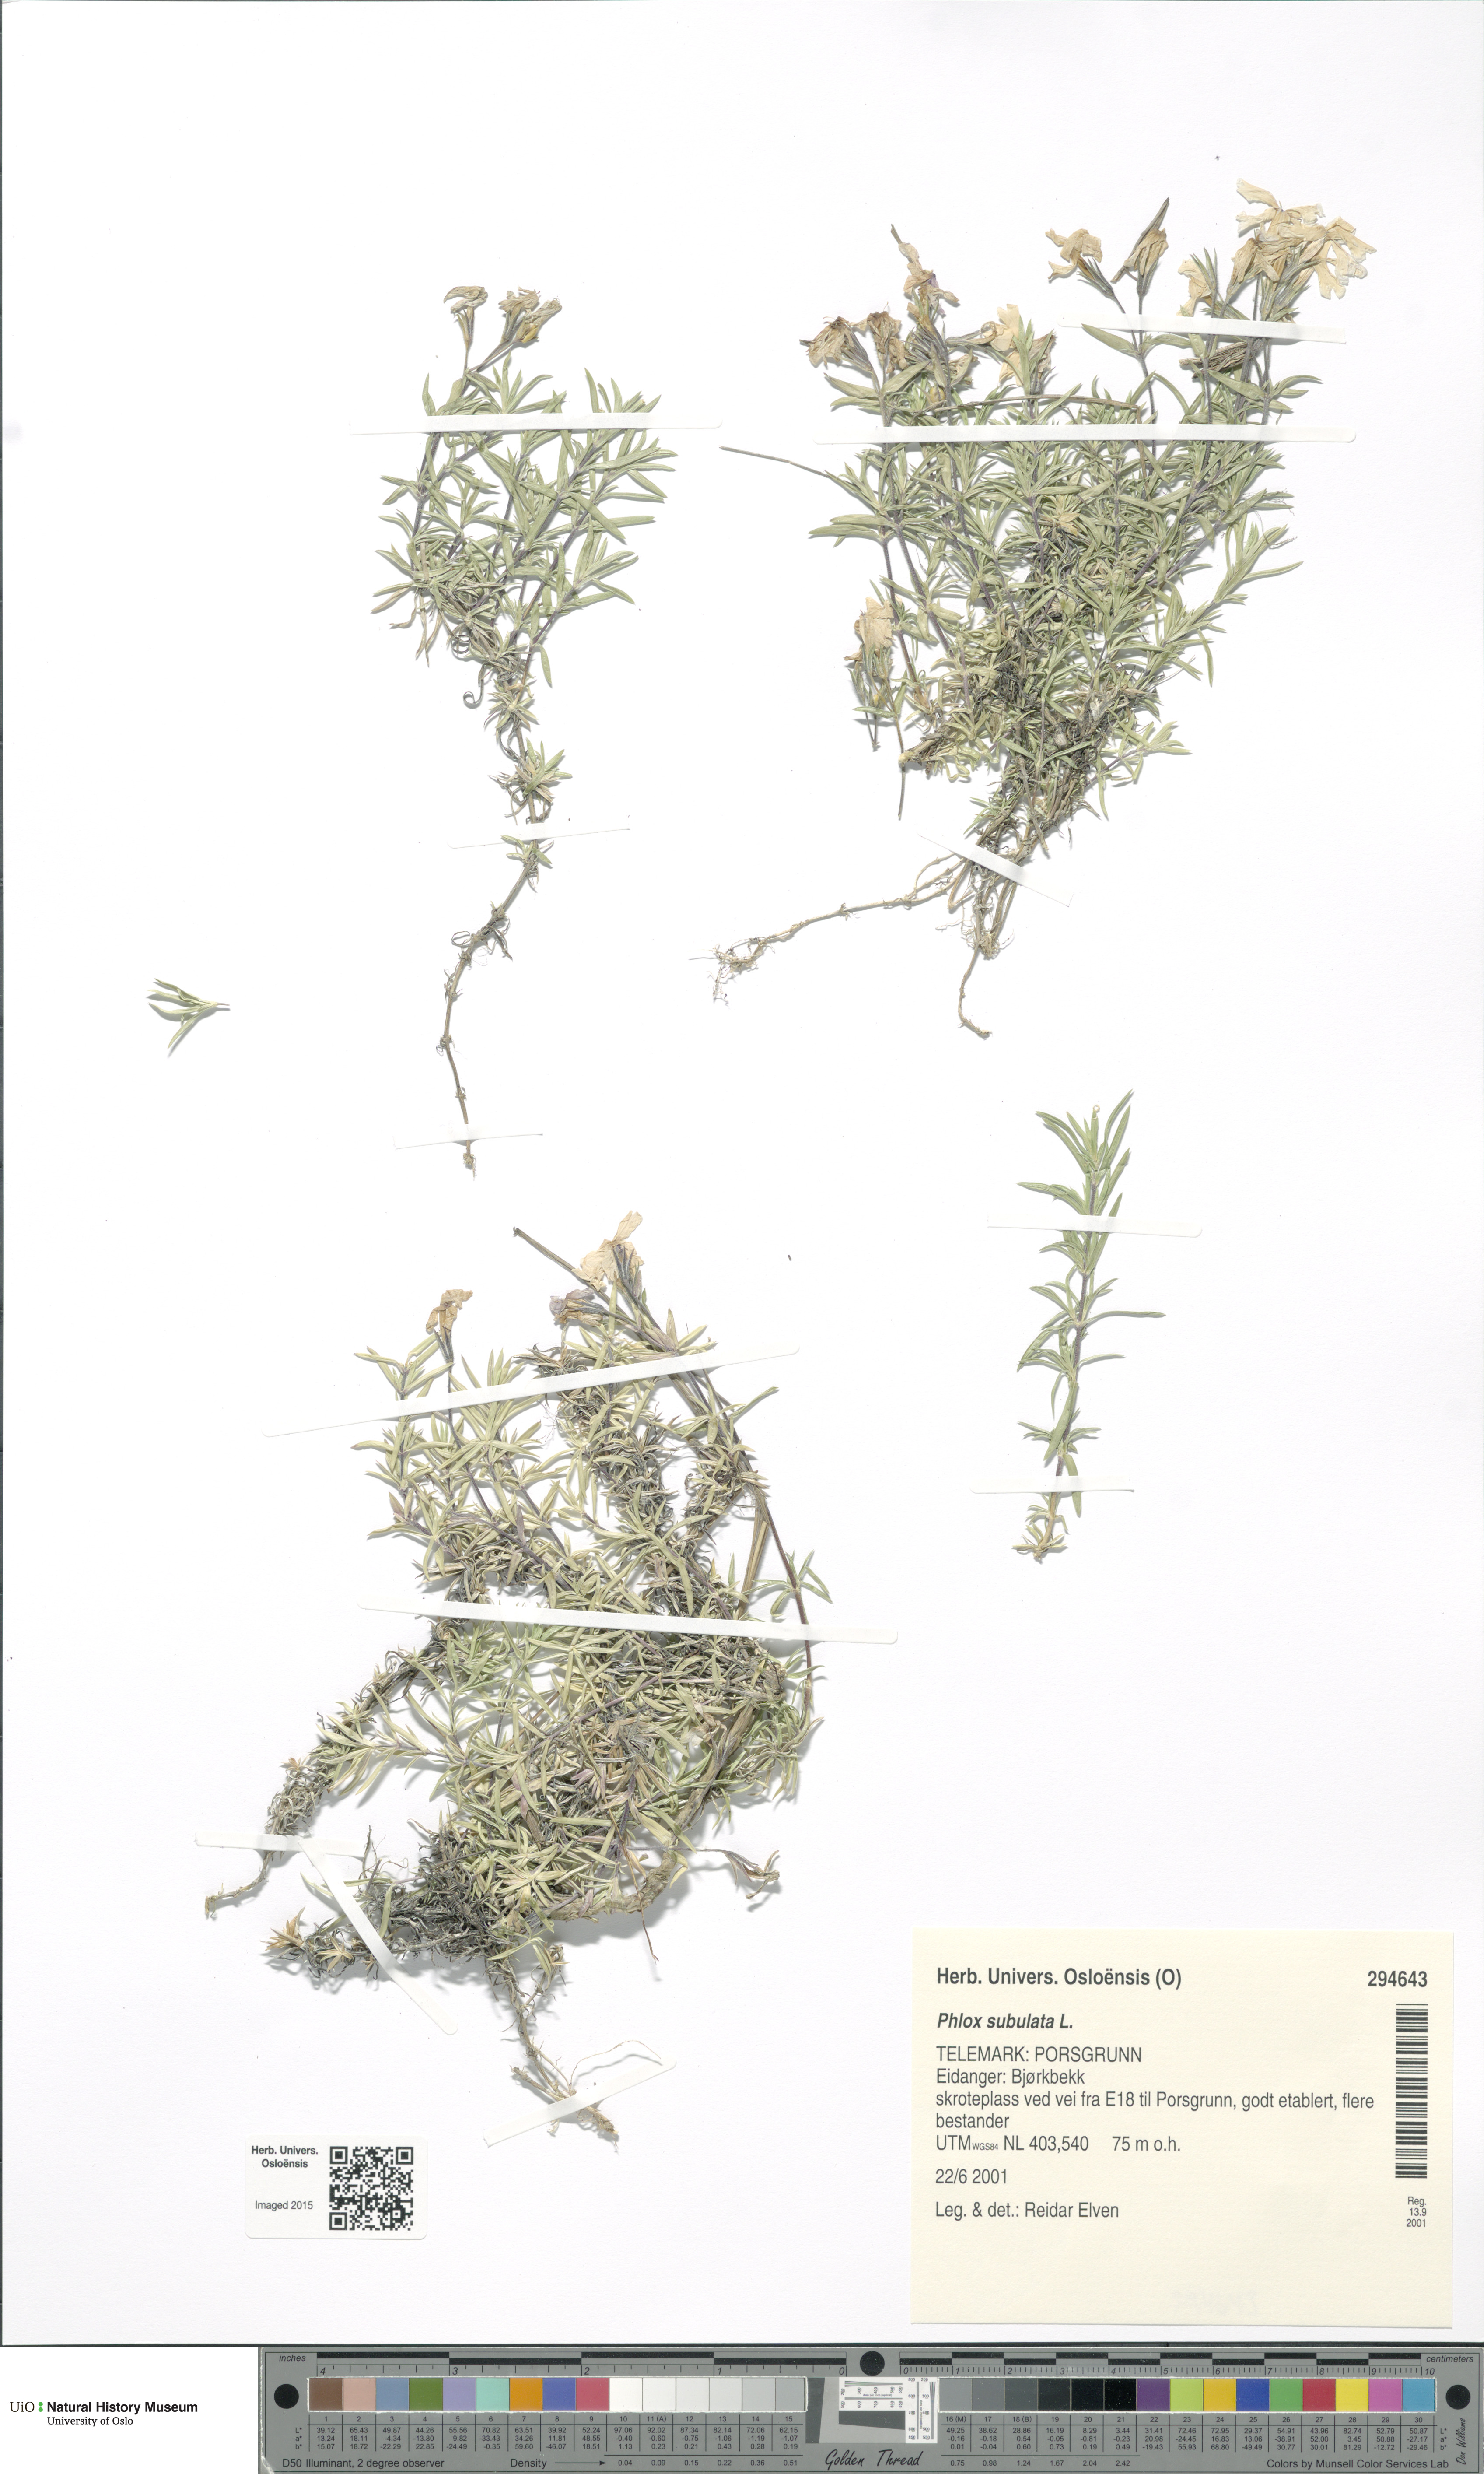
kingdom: Plantae
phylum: Tracheophyta
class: Magnoliopsida
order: Ericales
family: Polemoniaceae
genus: Phlox
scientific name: Phlox subulata
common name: Moss phlox
